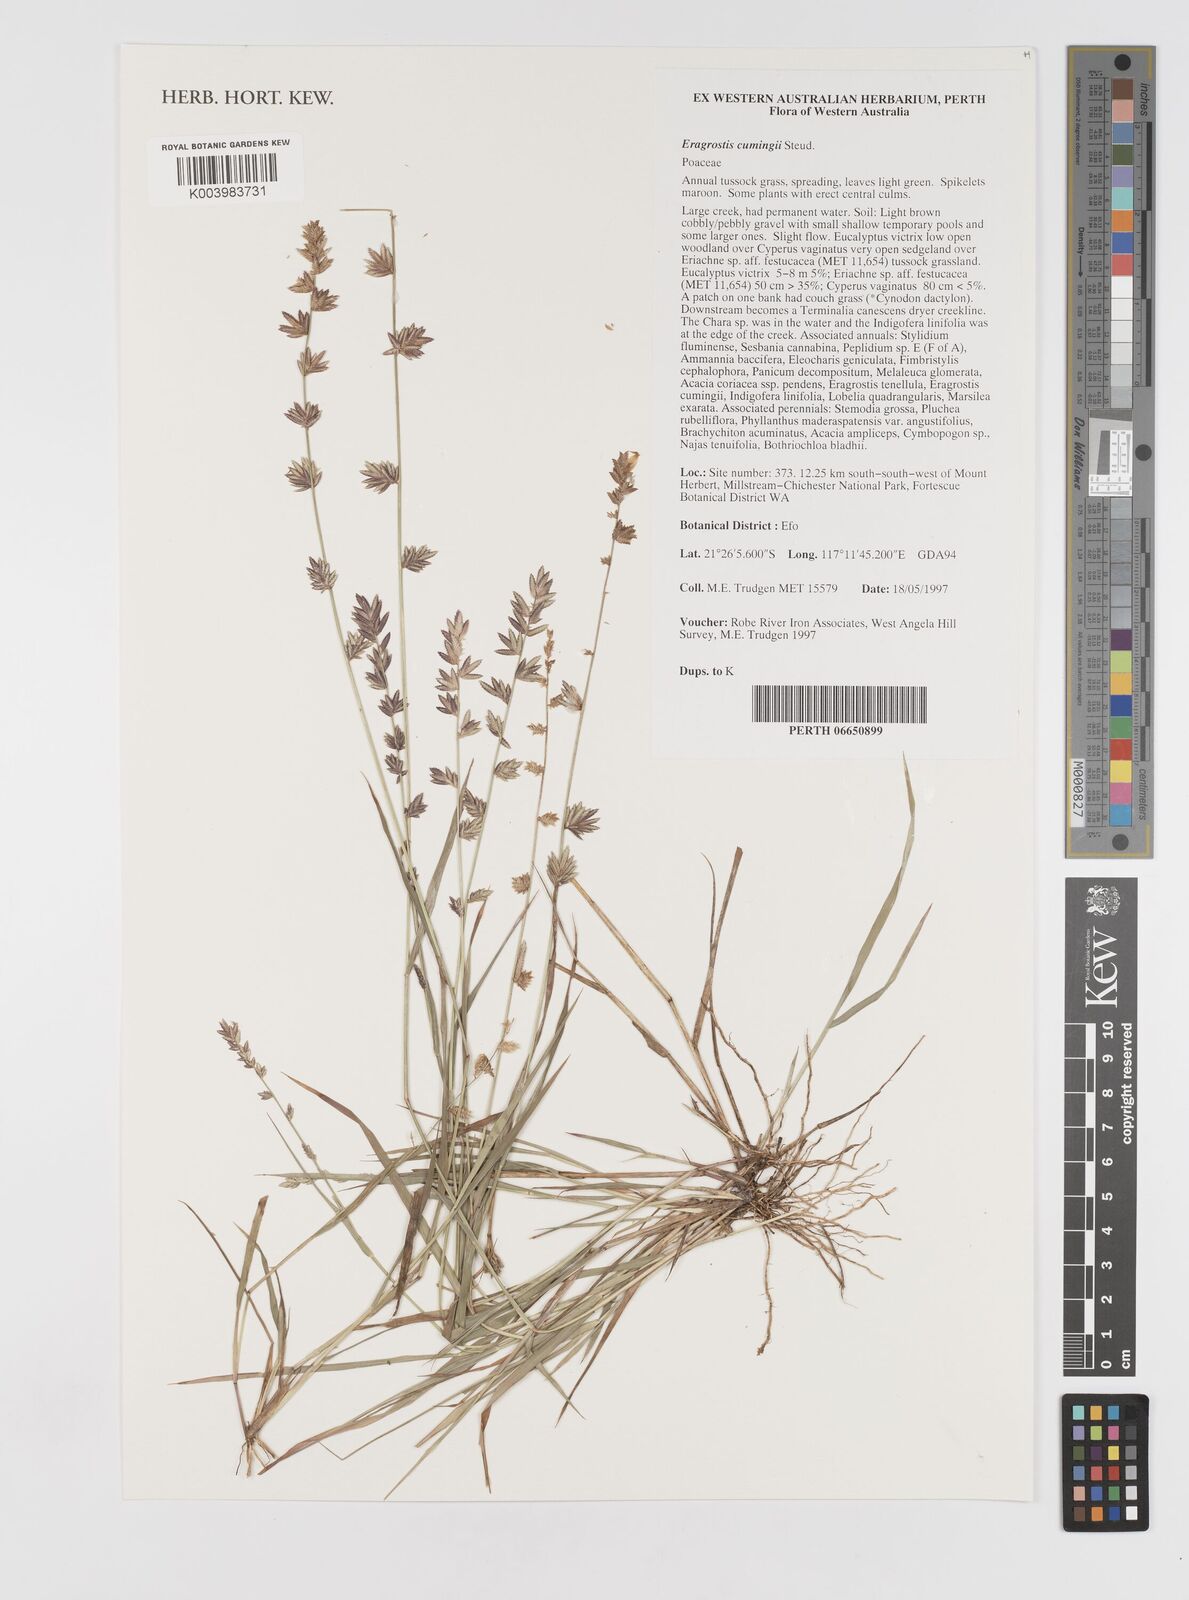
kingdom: Plantae
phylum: Tracheophyta
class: Liliopsida
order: Poales
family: Poaceae
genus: Eragrostis
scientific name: Eragrostis cumingii
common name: Cuming's lovegrass
